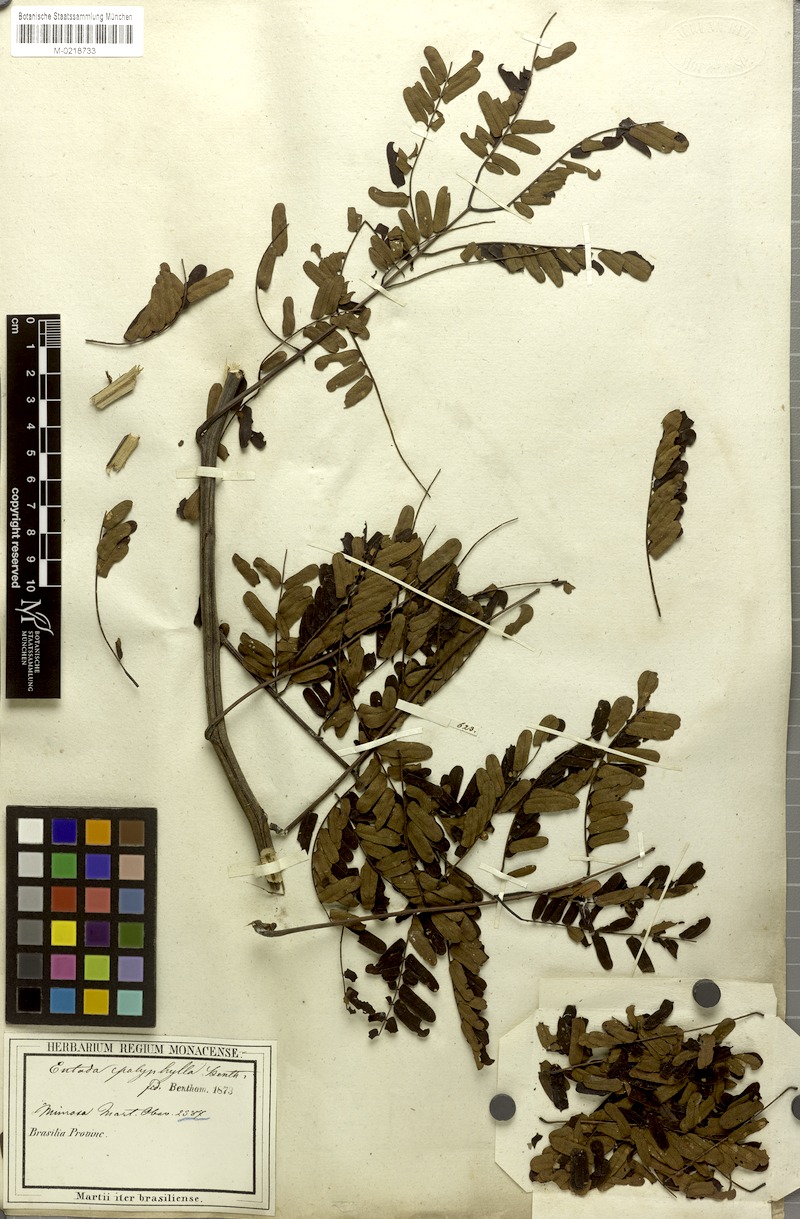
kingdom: Plantae
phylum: Tracheophyta
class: Magnoliopsida
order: Fabales
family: Fabaceae
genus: Entada
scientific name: Entada polyphylla
